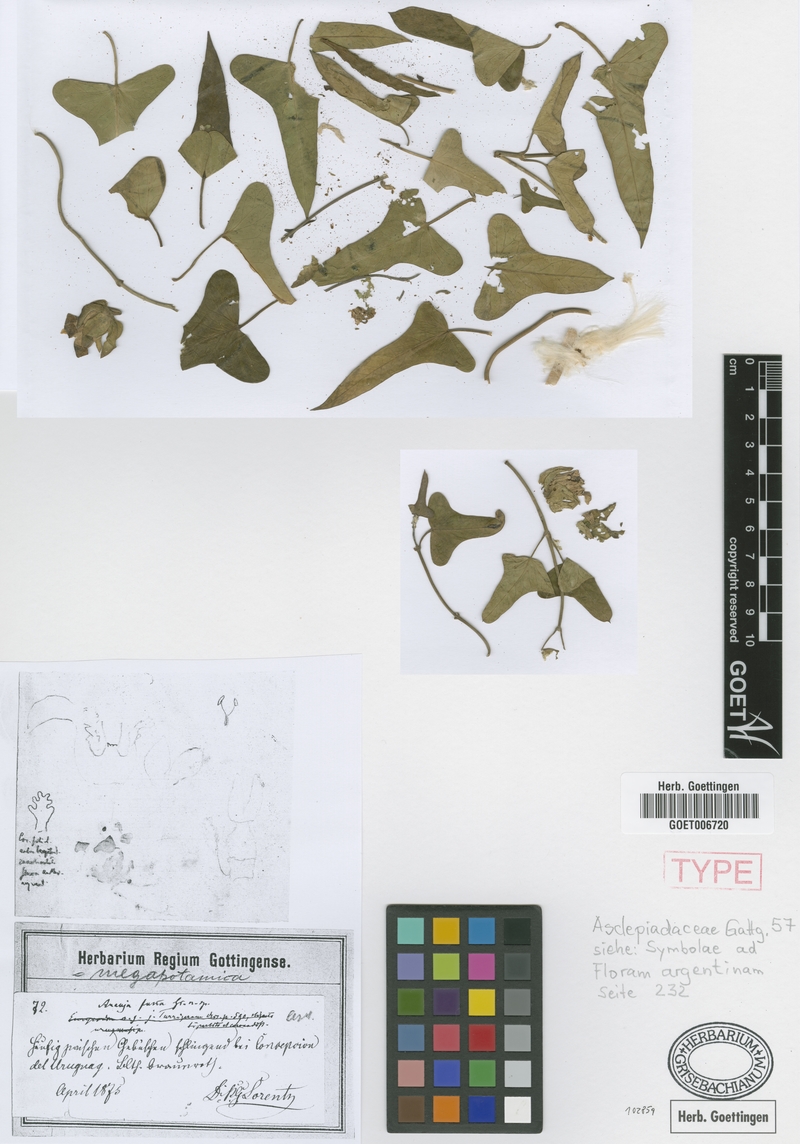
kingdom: Plantae
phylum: Tracheophyta
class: Magnoliopsida
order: Gentianales
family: Apocynaceae
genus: Araujia
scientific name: Araujia megapotamica
